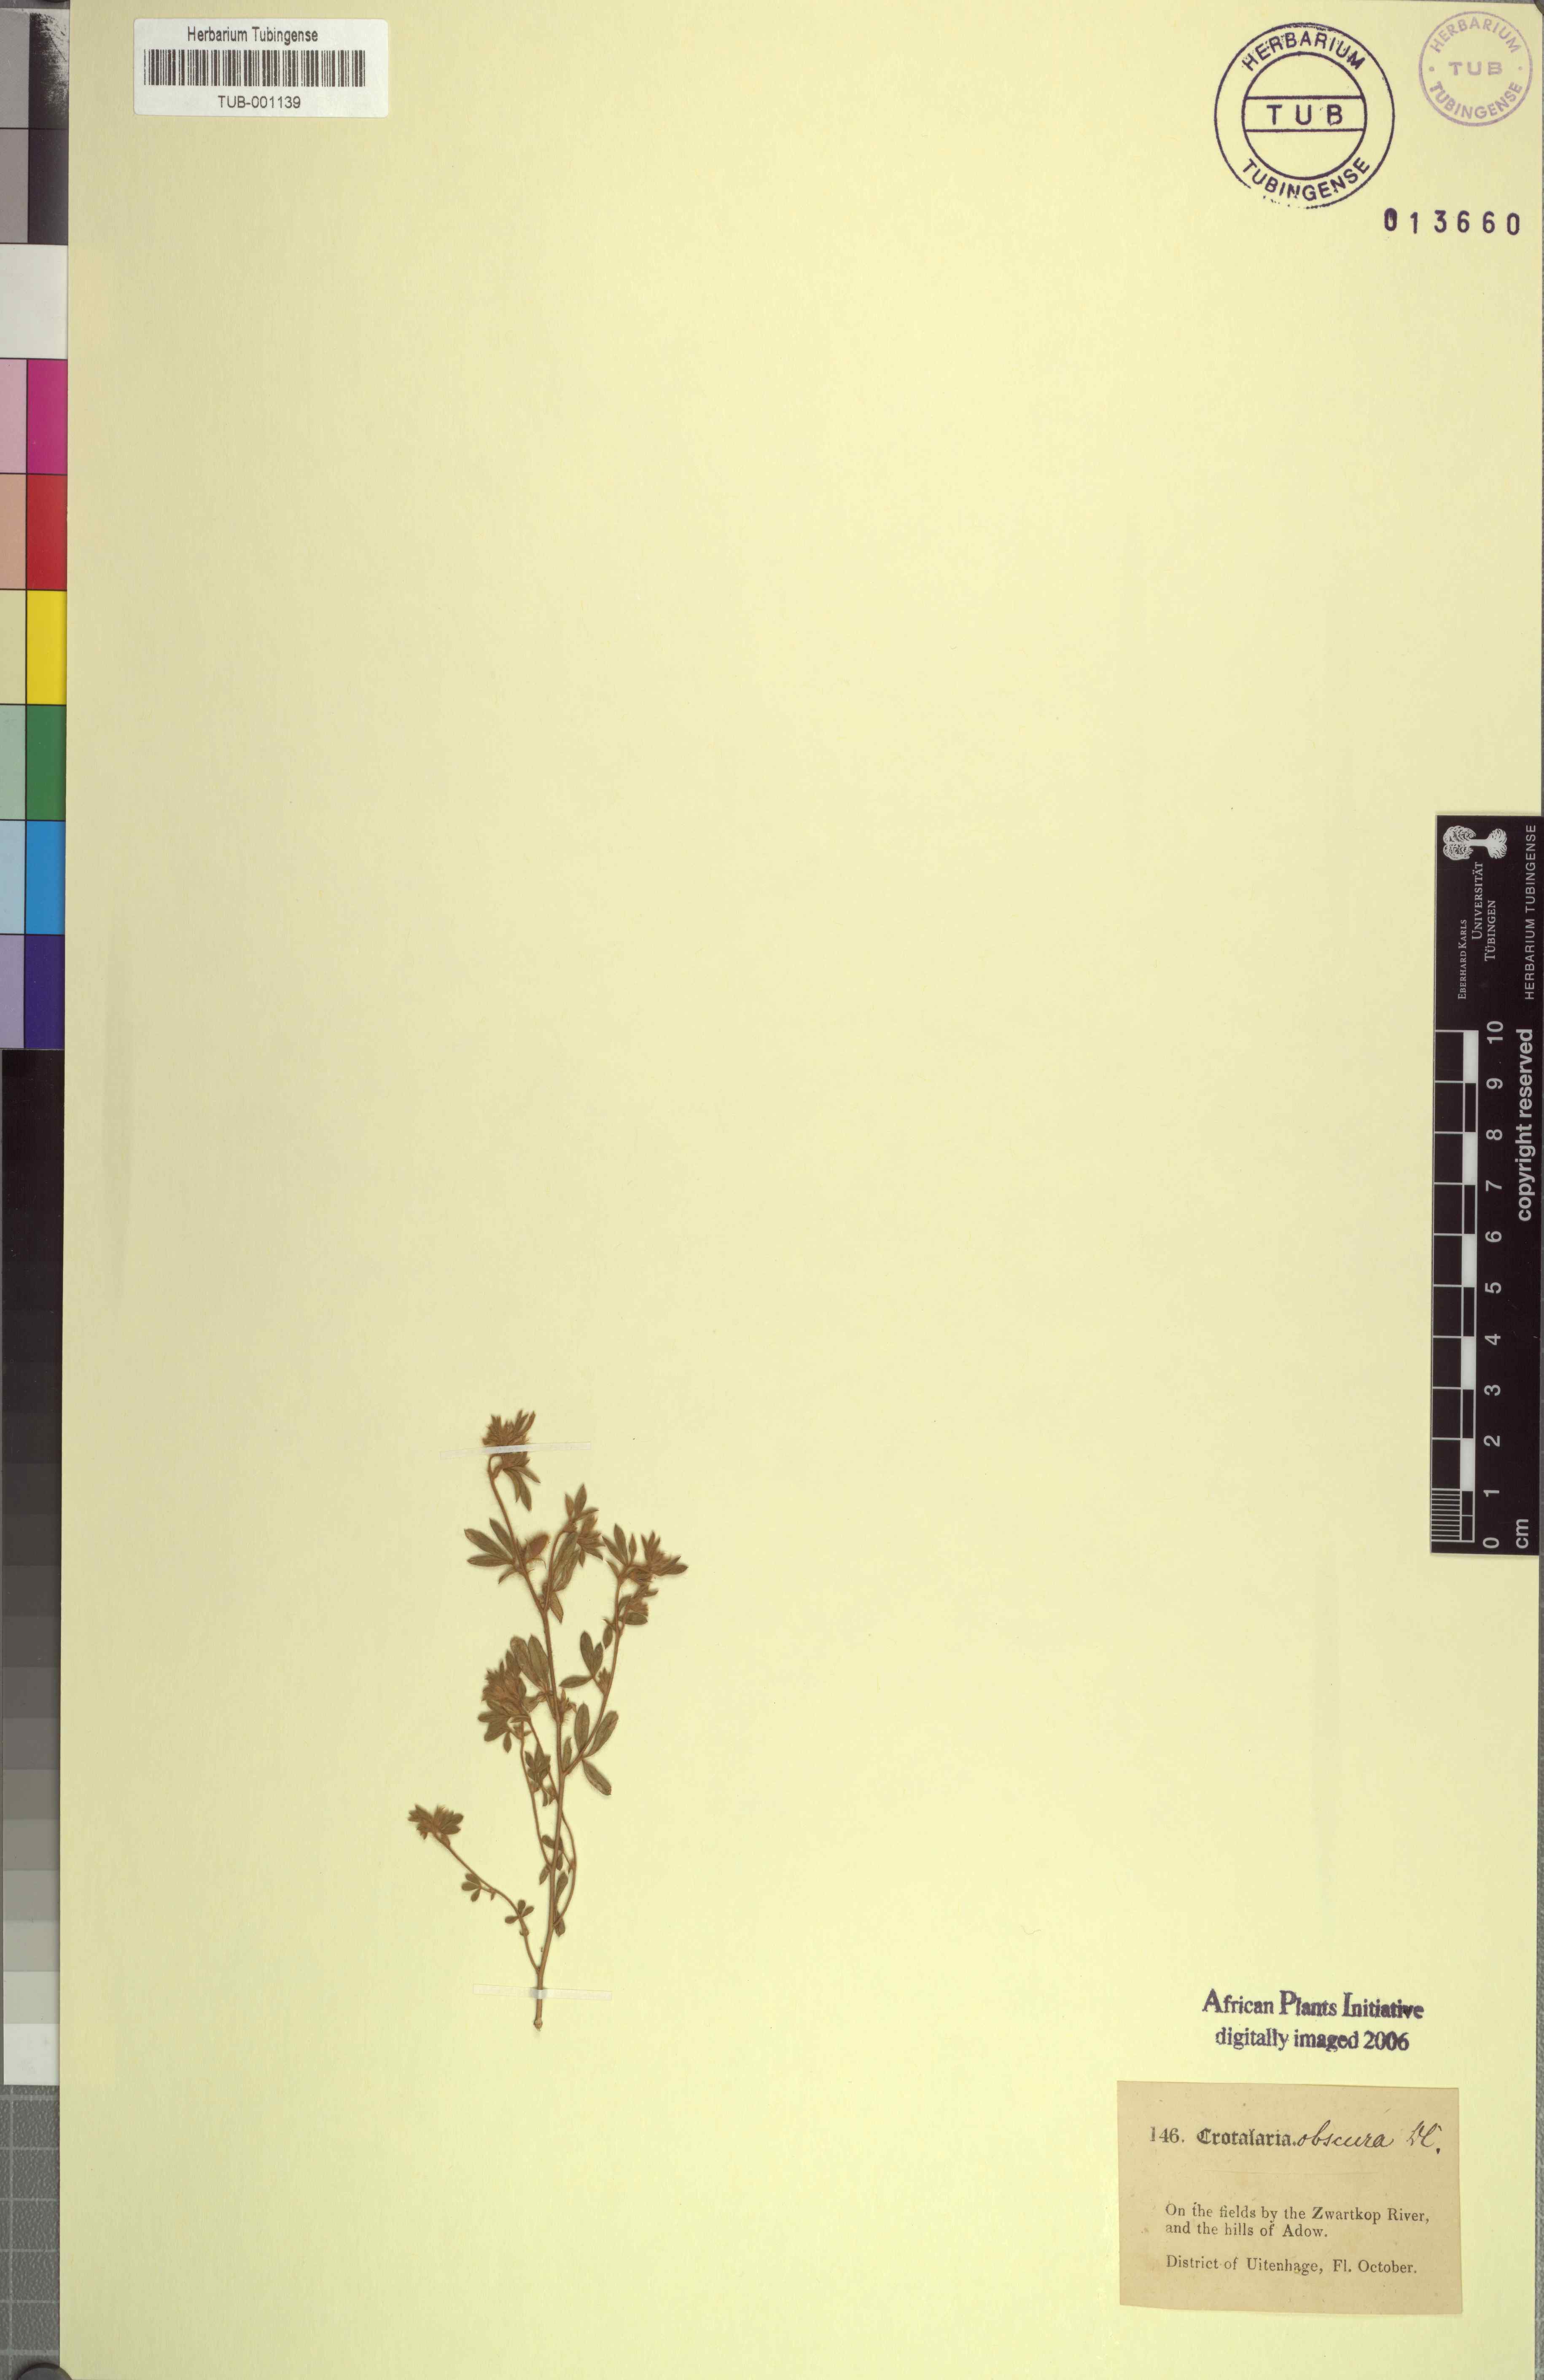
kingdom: Plantae
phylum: Tracheophyta
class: Magnoliopsida
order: Fabales
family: Fabaceae
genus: Crotalaria
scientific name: Crotalaria obscura
